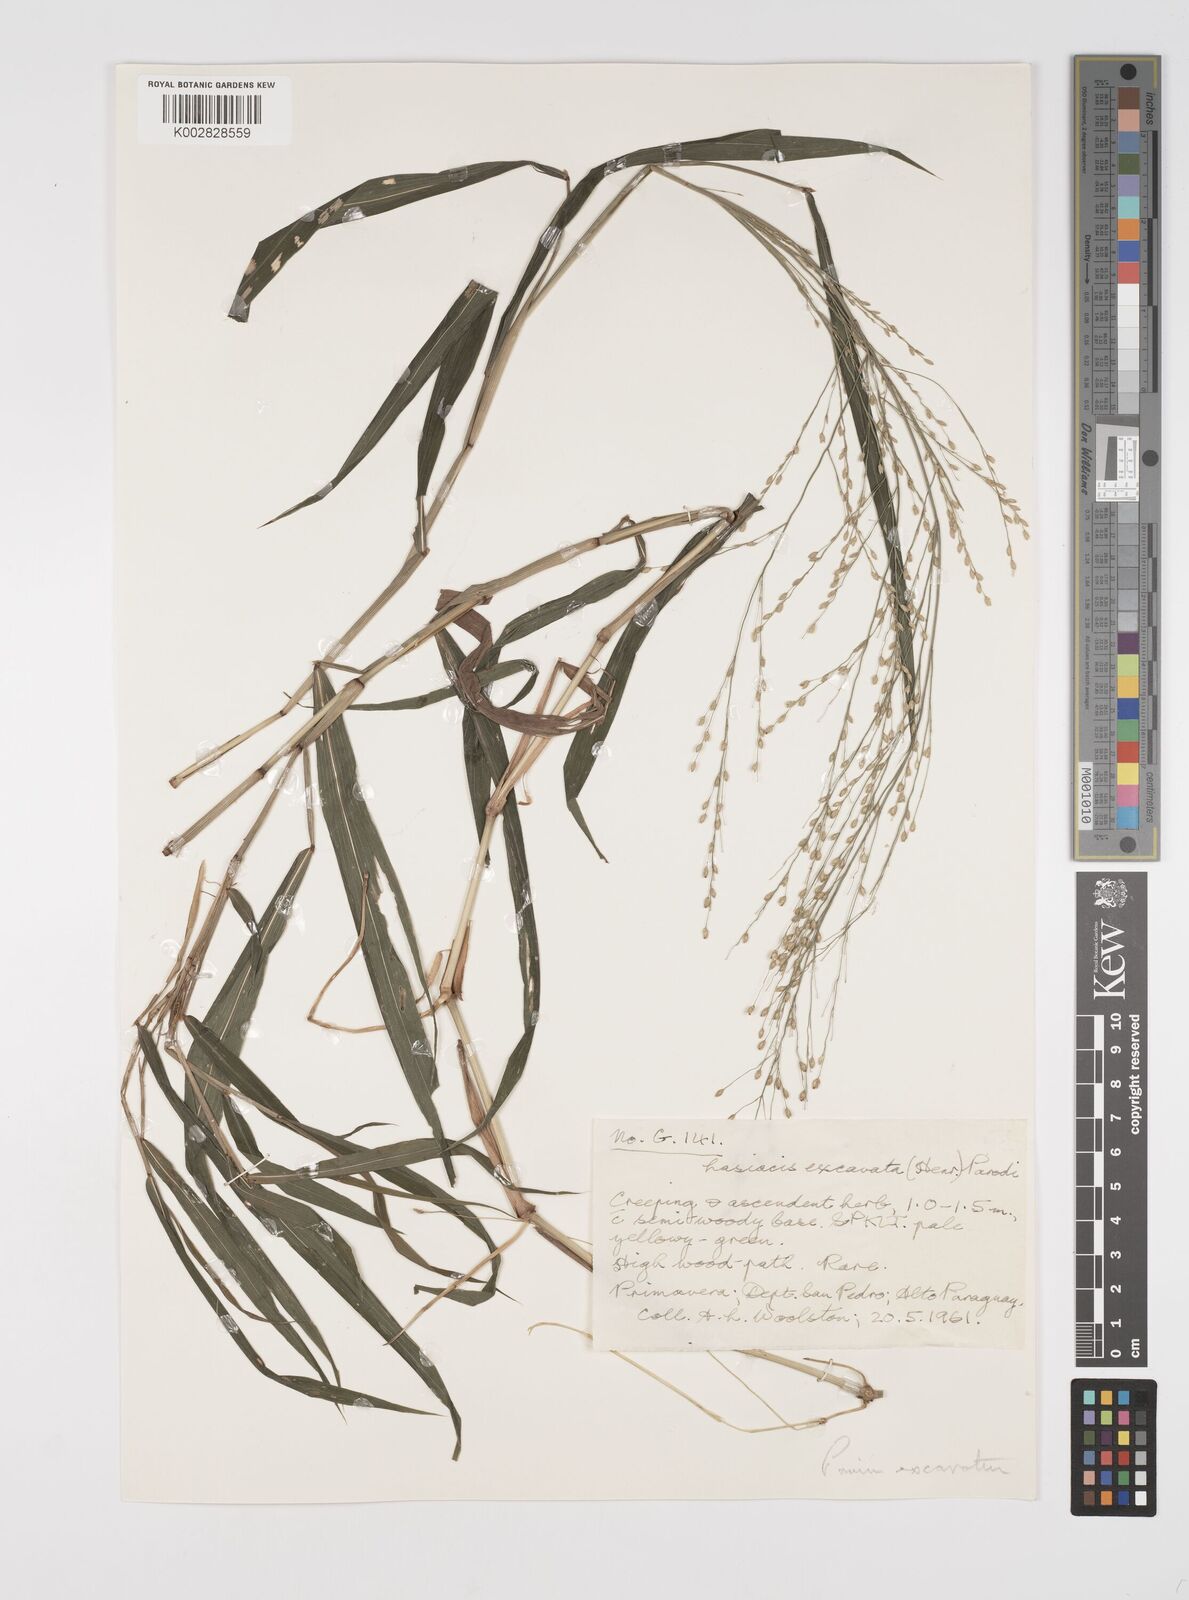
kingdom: Plantae
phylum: Tracheophyta
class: Liliopsida
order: Poales
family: Poaceae
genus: Acroceras
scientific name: Acroceras excavatum
